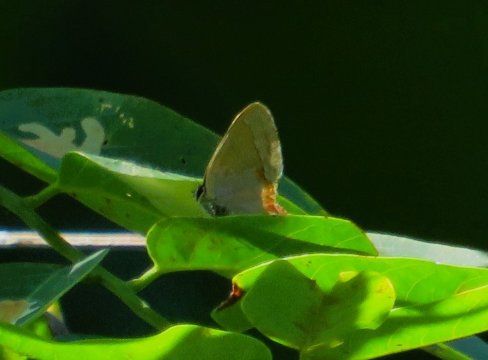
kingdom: Animalia
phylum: Arthropoda
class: Insecta
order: Lepidoptera
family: Lycaenidae
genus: Calycopis
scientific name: Calycopis cecrops
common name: Red-banded Hairstreak
